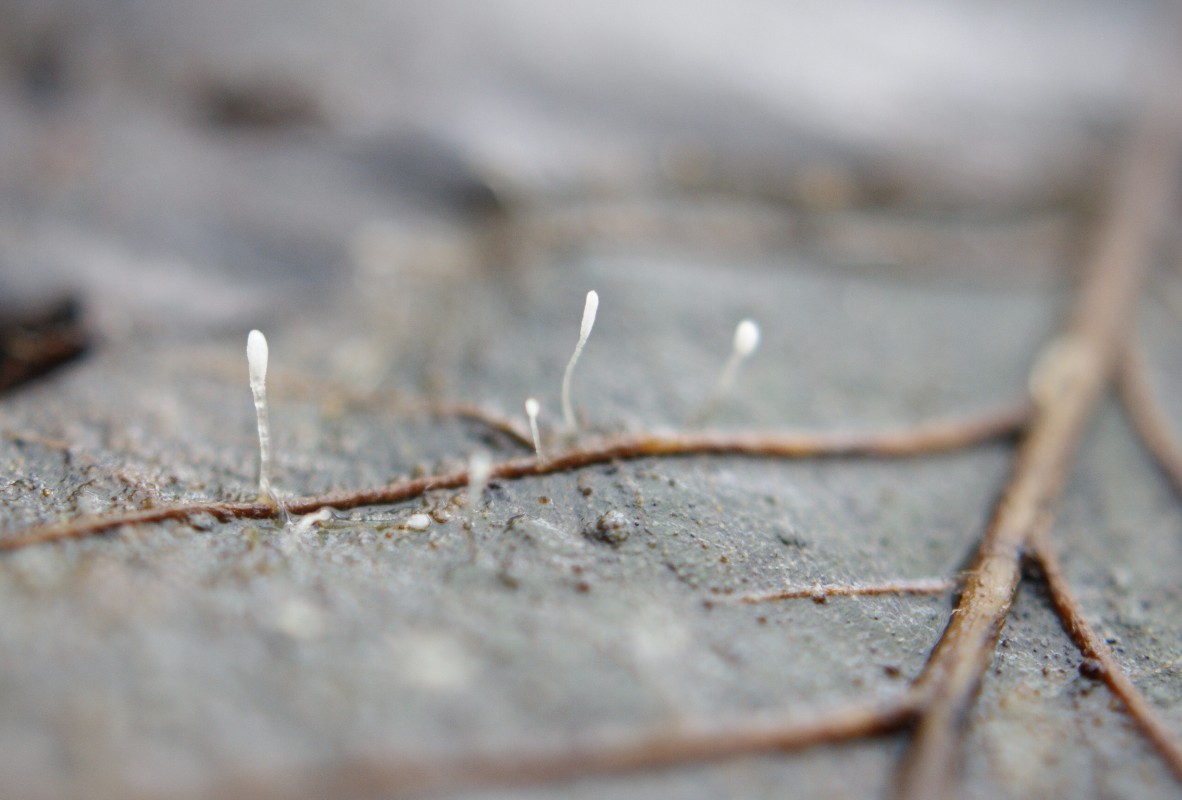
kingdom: Fungi
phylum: Basidiomycota
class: Agaricomycetes
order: Agaricales
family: Typhulaceae
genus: Typhula
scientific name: Typhula setipes
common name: liden trådkølle
